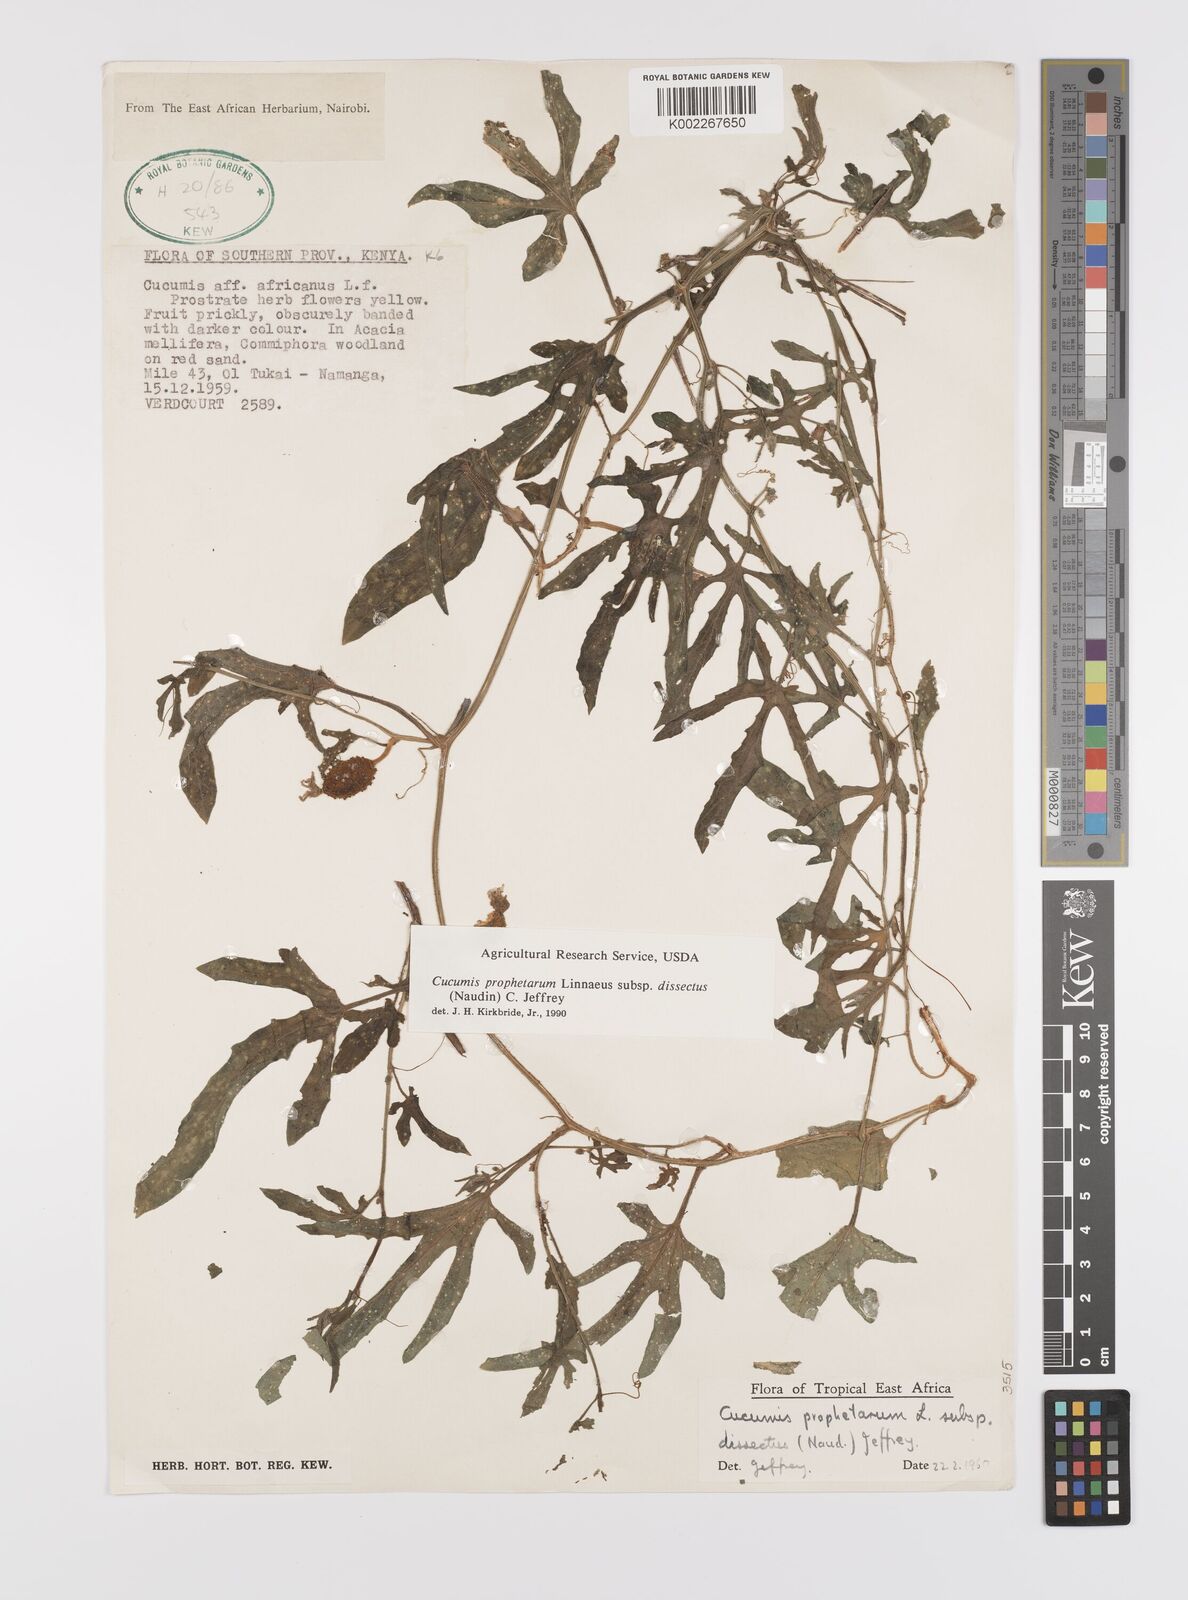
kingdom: Plantae
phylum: Tracheophyta
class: Magnoliopsida
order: Cucurbitales
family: Cucurbitaceae
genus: Cucumis
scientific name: Cucumis
